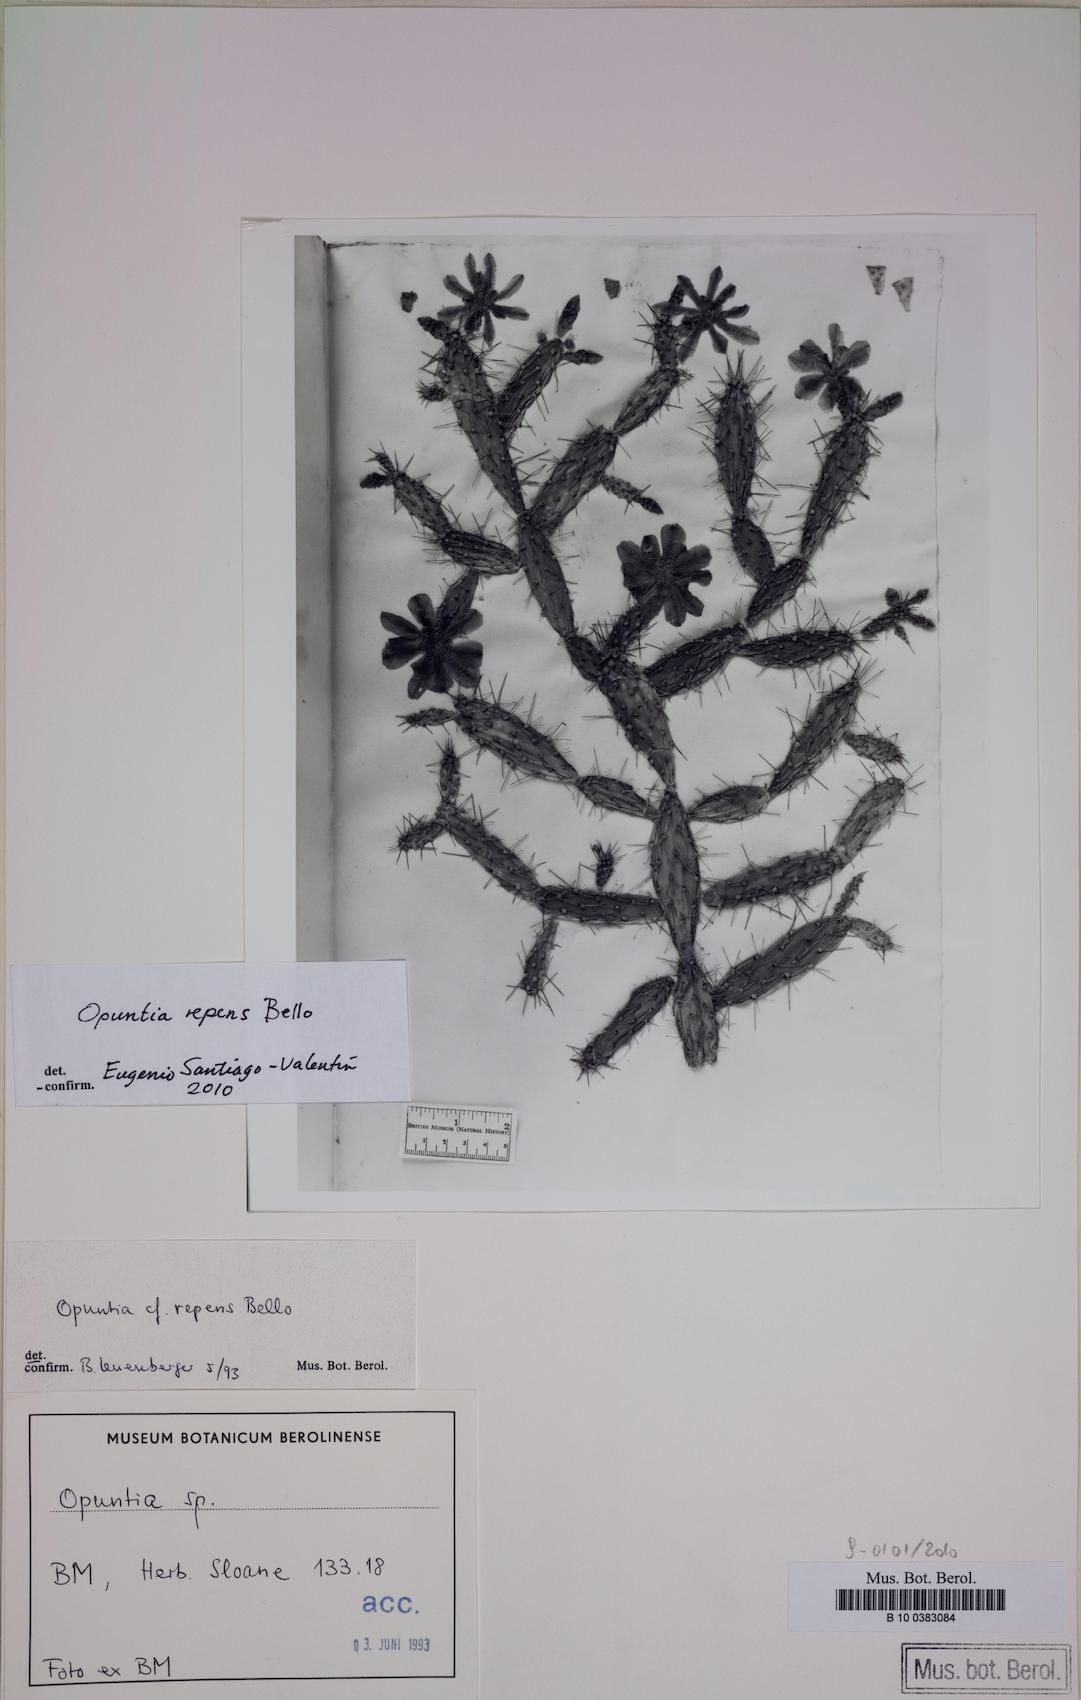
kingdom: Plantae
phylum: Tracheophyta
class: Magnoliopsida
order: Caryophyllales
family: Cactaceae
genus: Opuntia
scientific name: Opuntia repens
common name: Roving pricklypear
